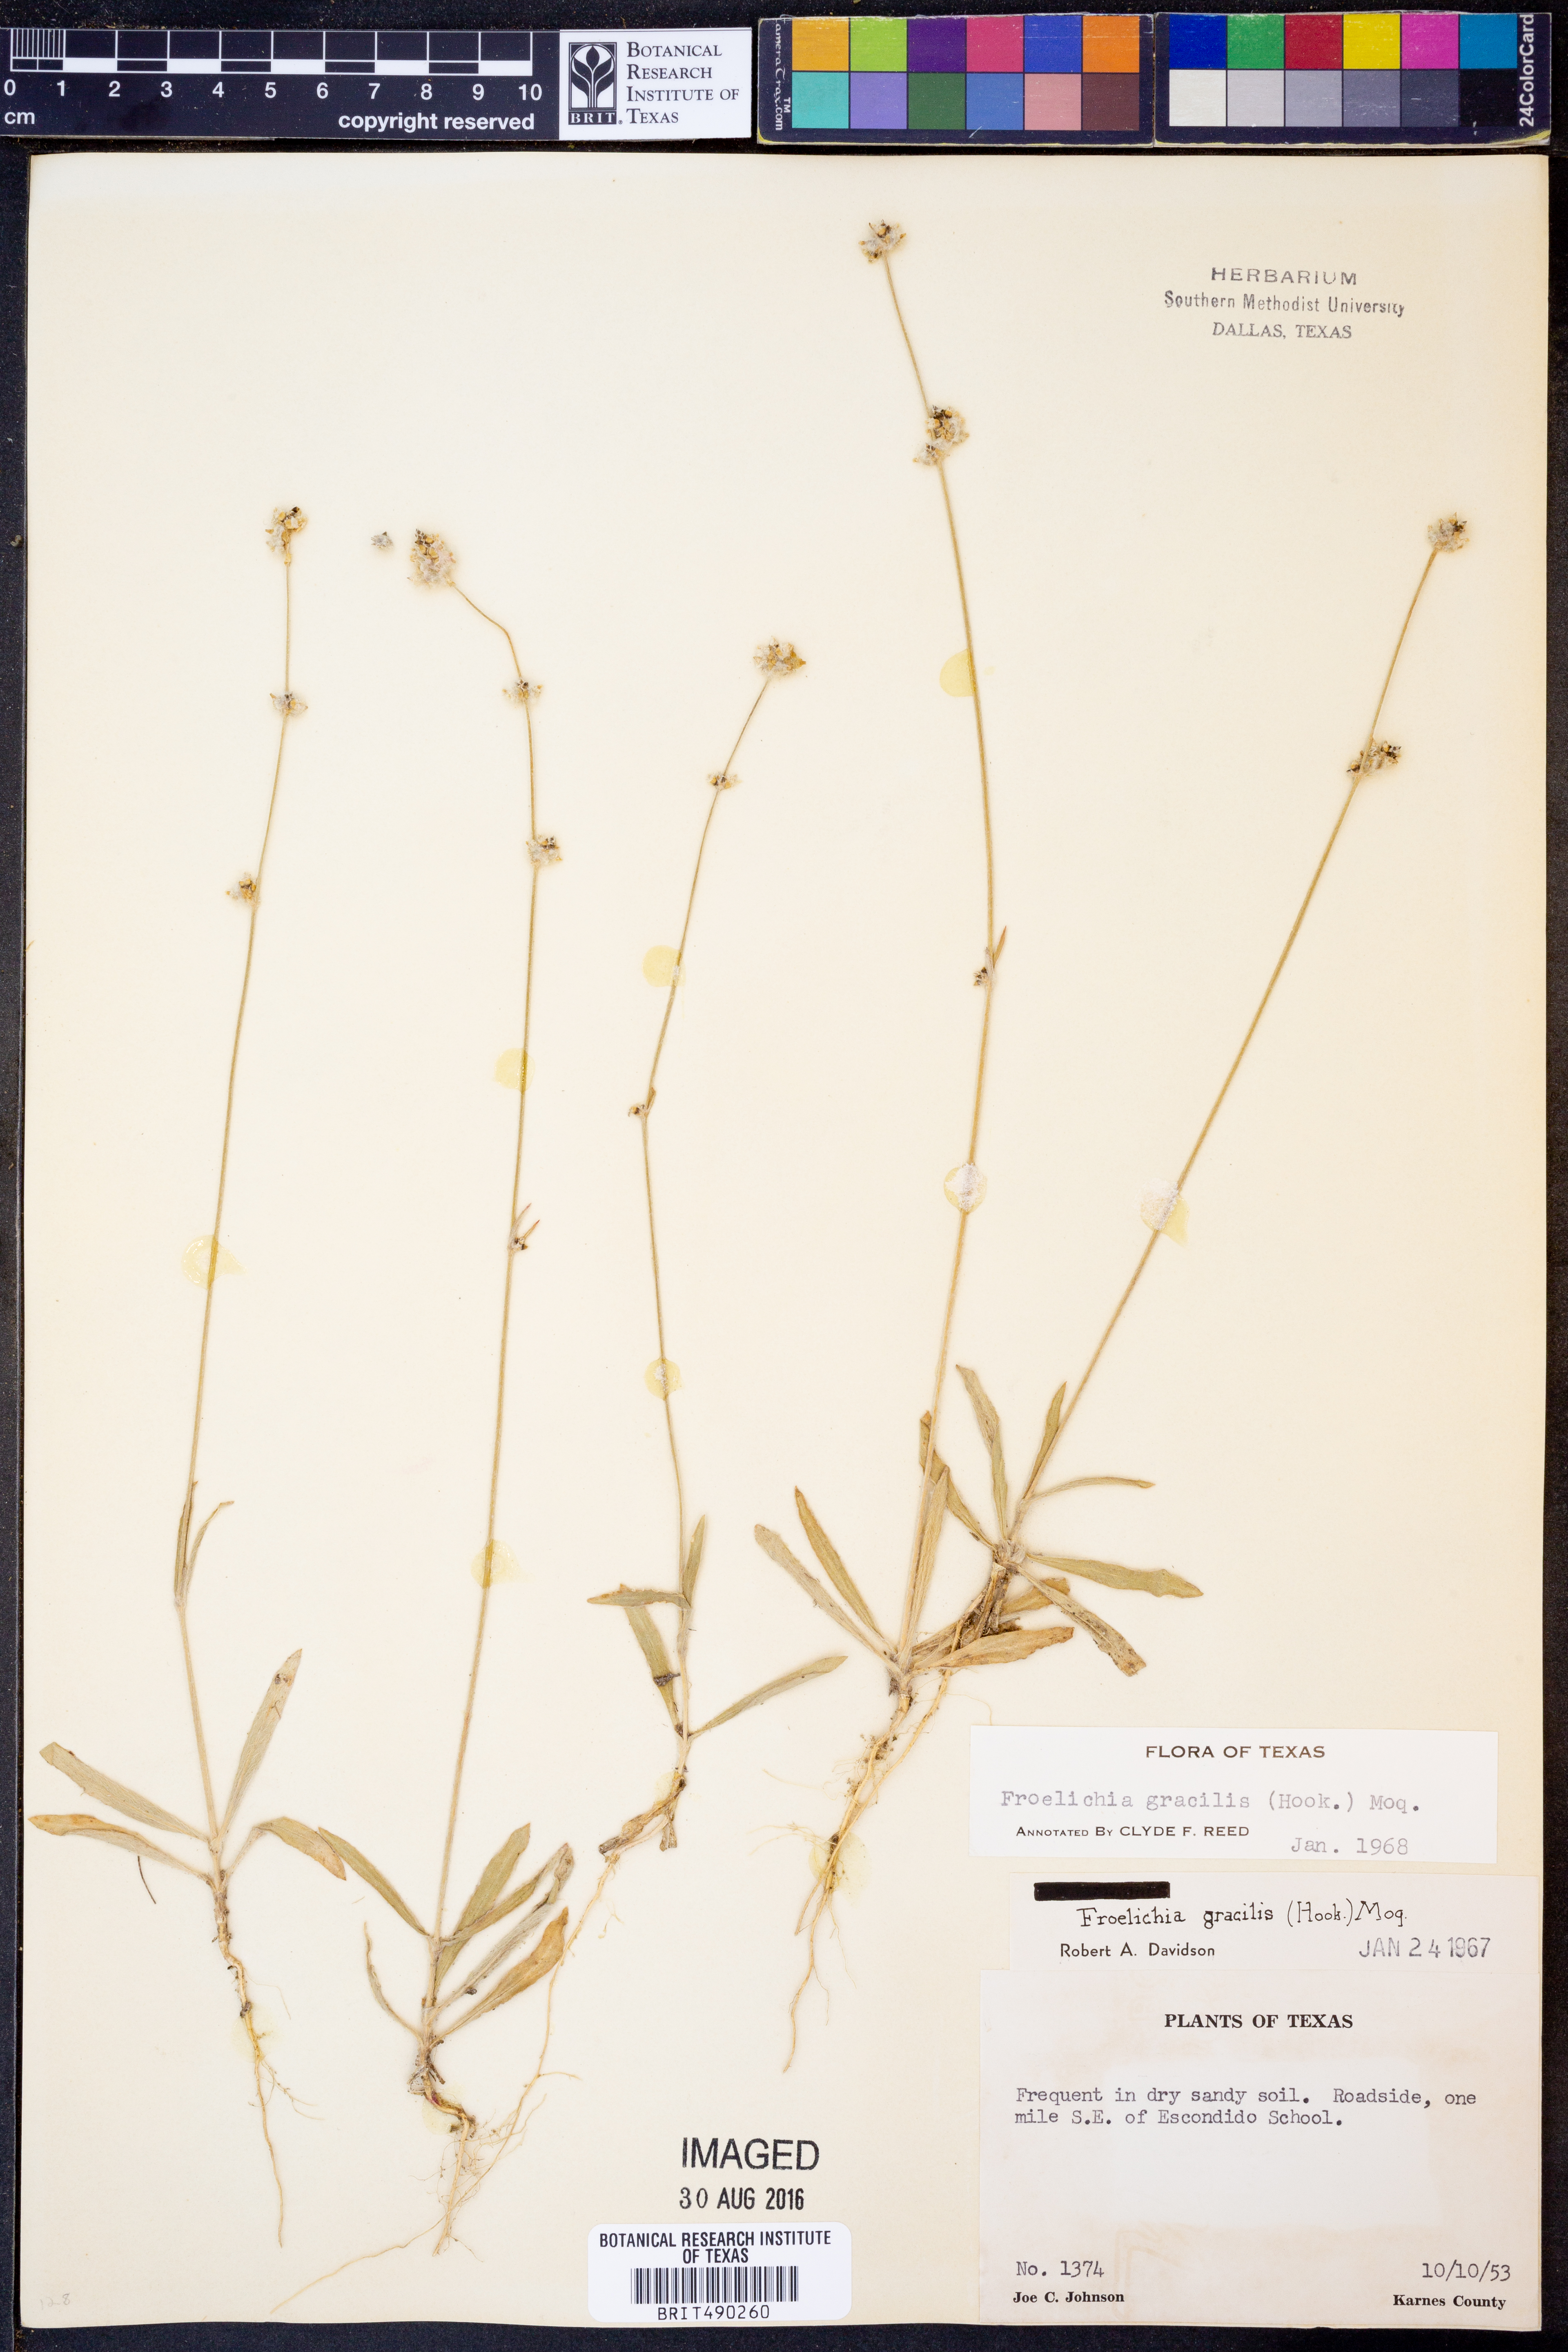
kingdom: Plantae
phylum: Tracheophyta
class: Magnoliopsida
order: Caryophyllales
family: Amaranthaceae
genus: Froelichia
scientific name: Froelichia gracilis
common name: Slender cottonweed
